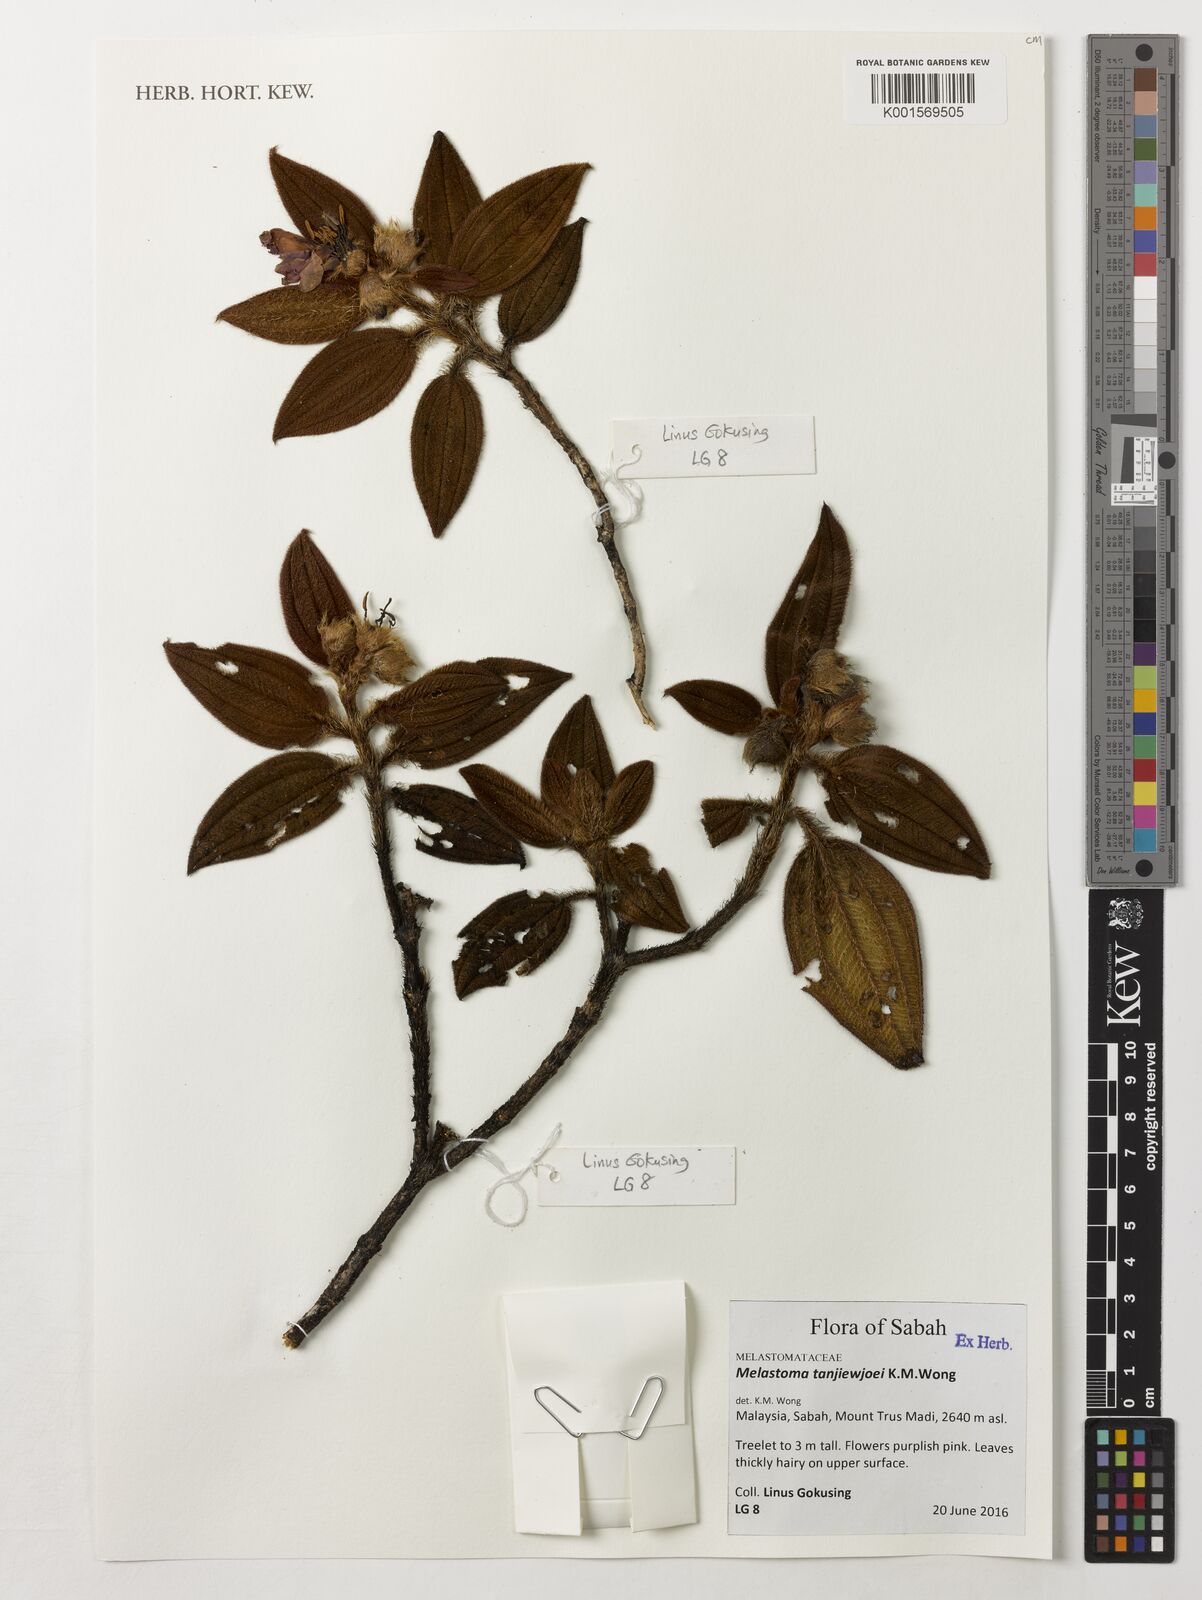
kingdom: Plantae
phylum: Tracheophyta
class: Magnoliopsida
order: Myrtales
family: Melastomataceae
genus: Melastoma
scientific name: Melastoma tanjiewhoei
